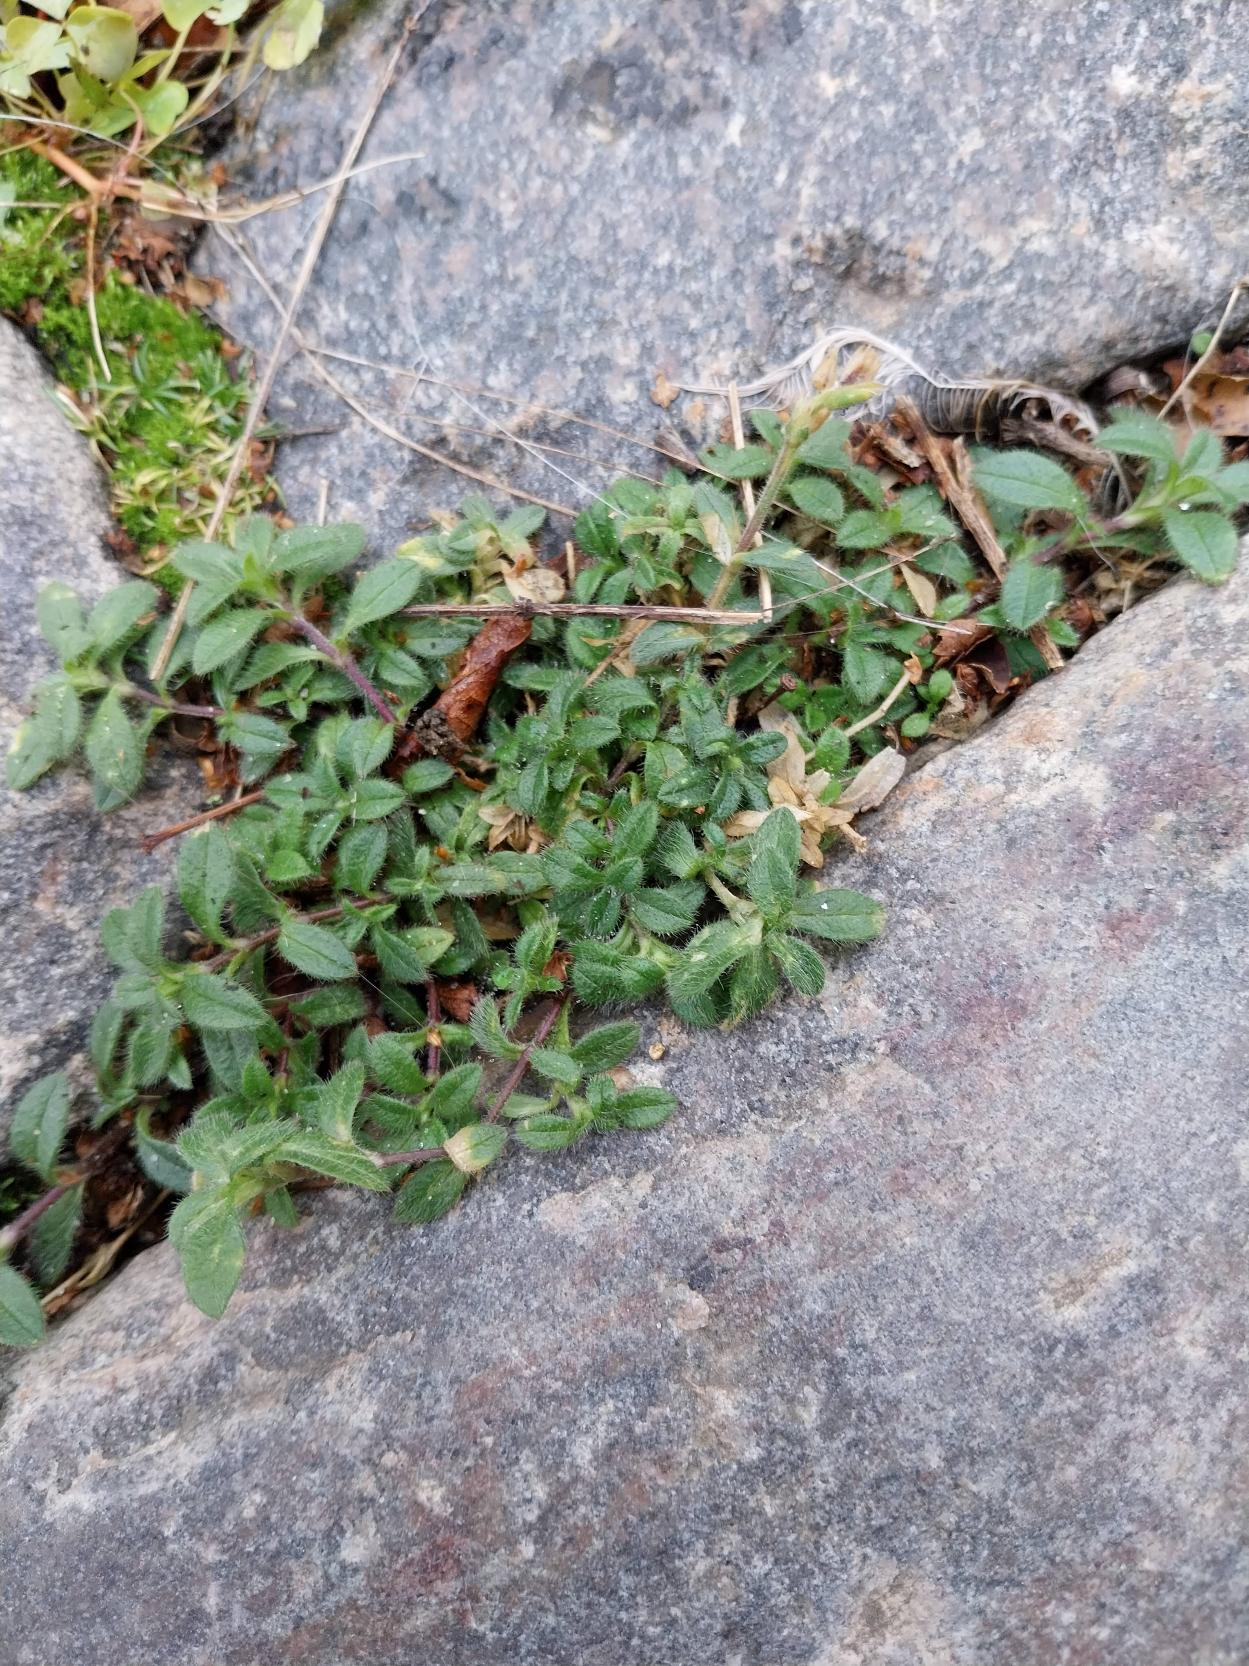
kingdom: Plantae
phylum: Tracheophyta
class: Magnoliopsida
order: Caryophyllales
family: Caryophyllaceae
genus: Cerastium
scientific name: Cerastium fontanum
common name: Almindelig hønsetarm
